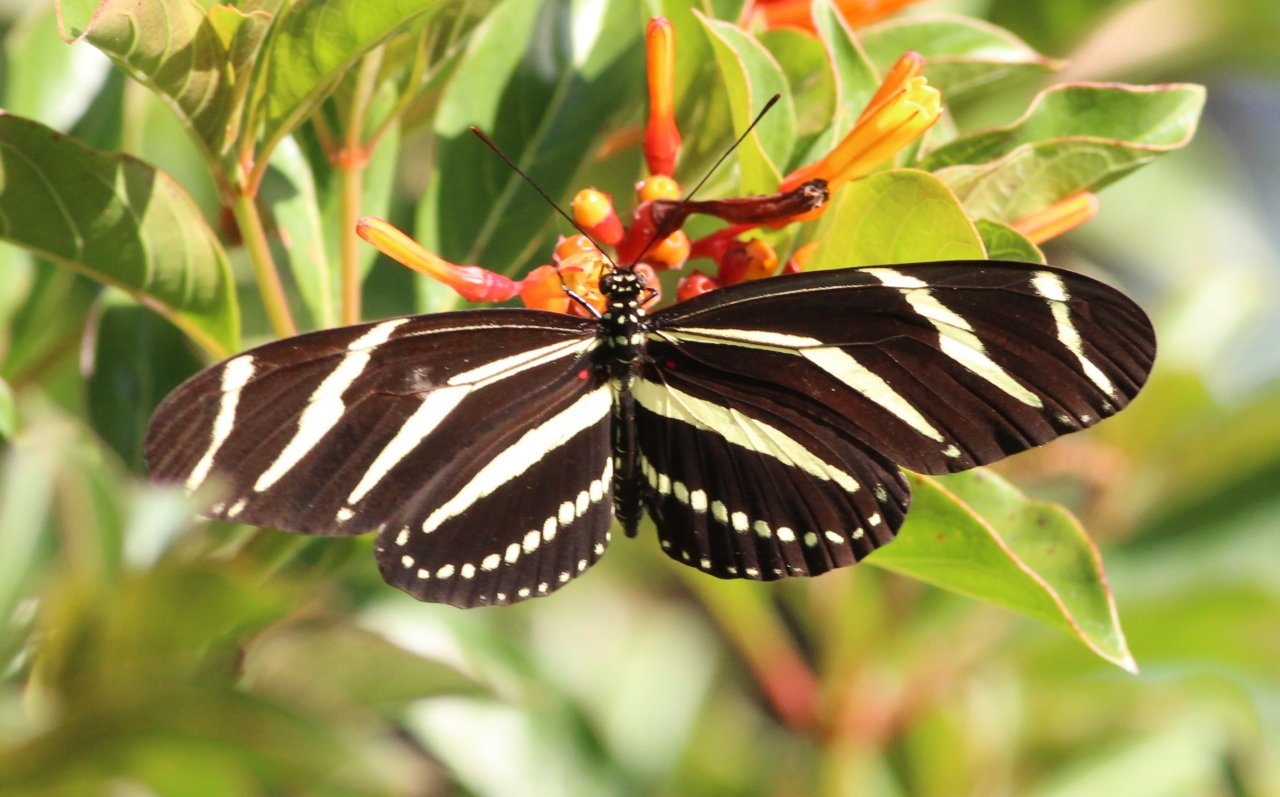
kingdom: Animalia
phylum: Arthropoda
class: Insecta
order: Lepidoptera
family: Nymphalidae
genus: Heliconius
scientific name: Heliconius charithonia
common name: Zebra Longwing
